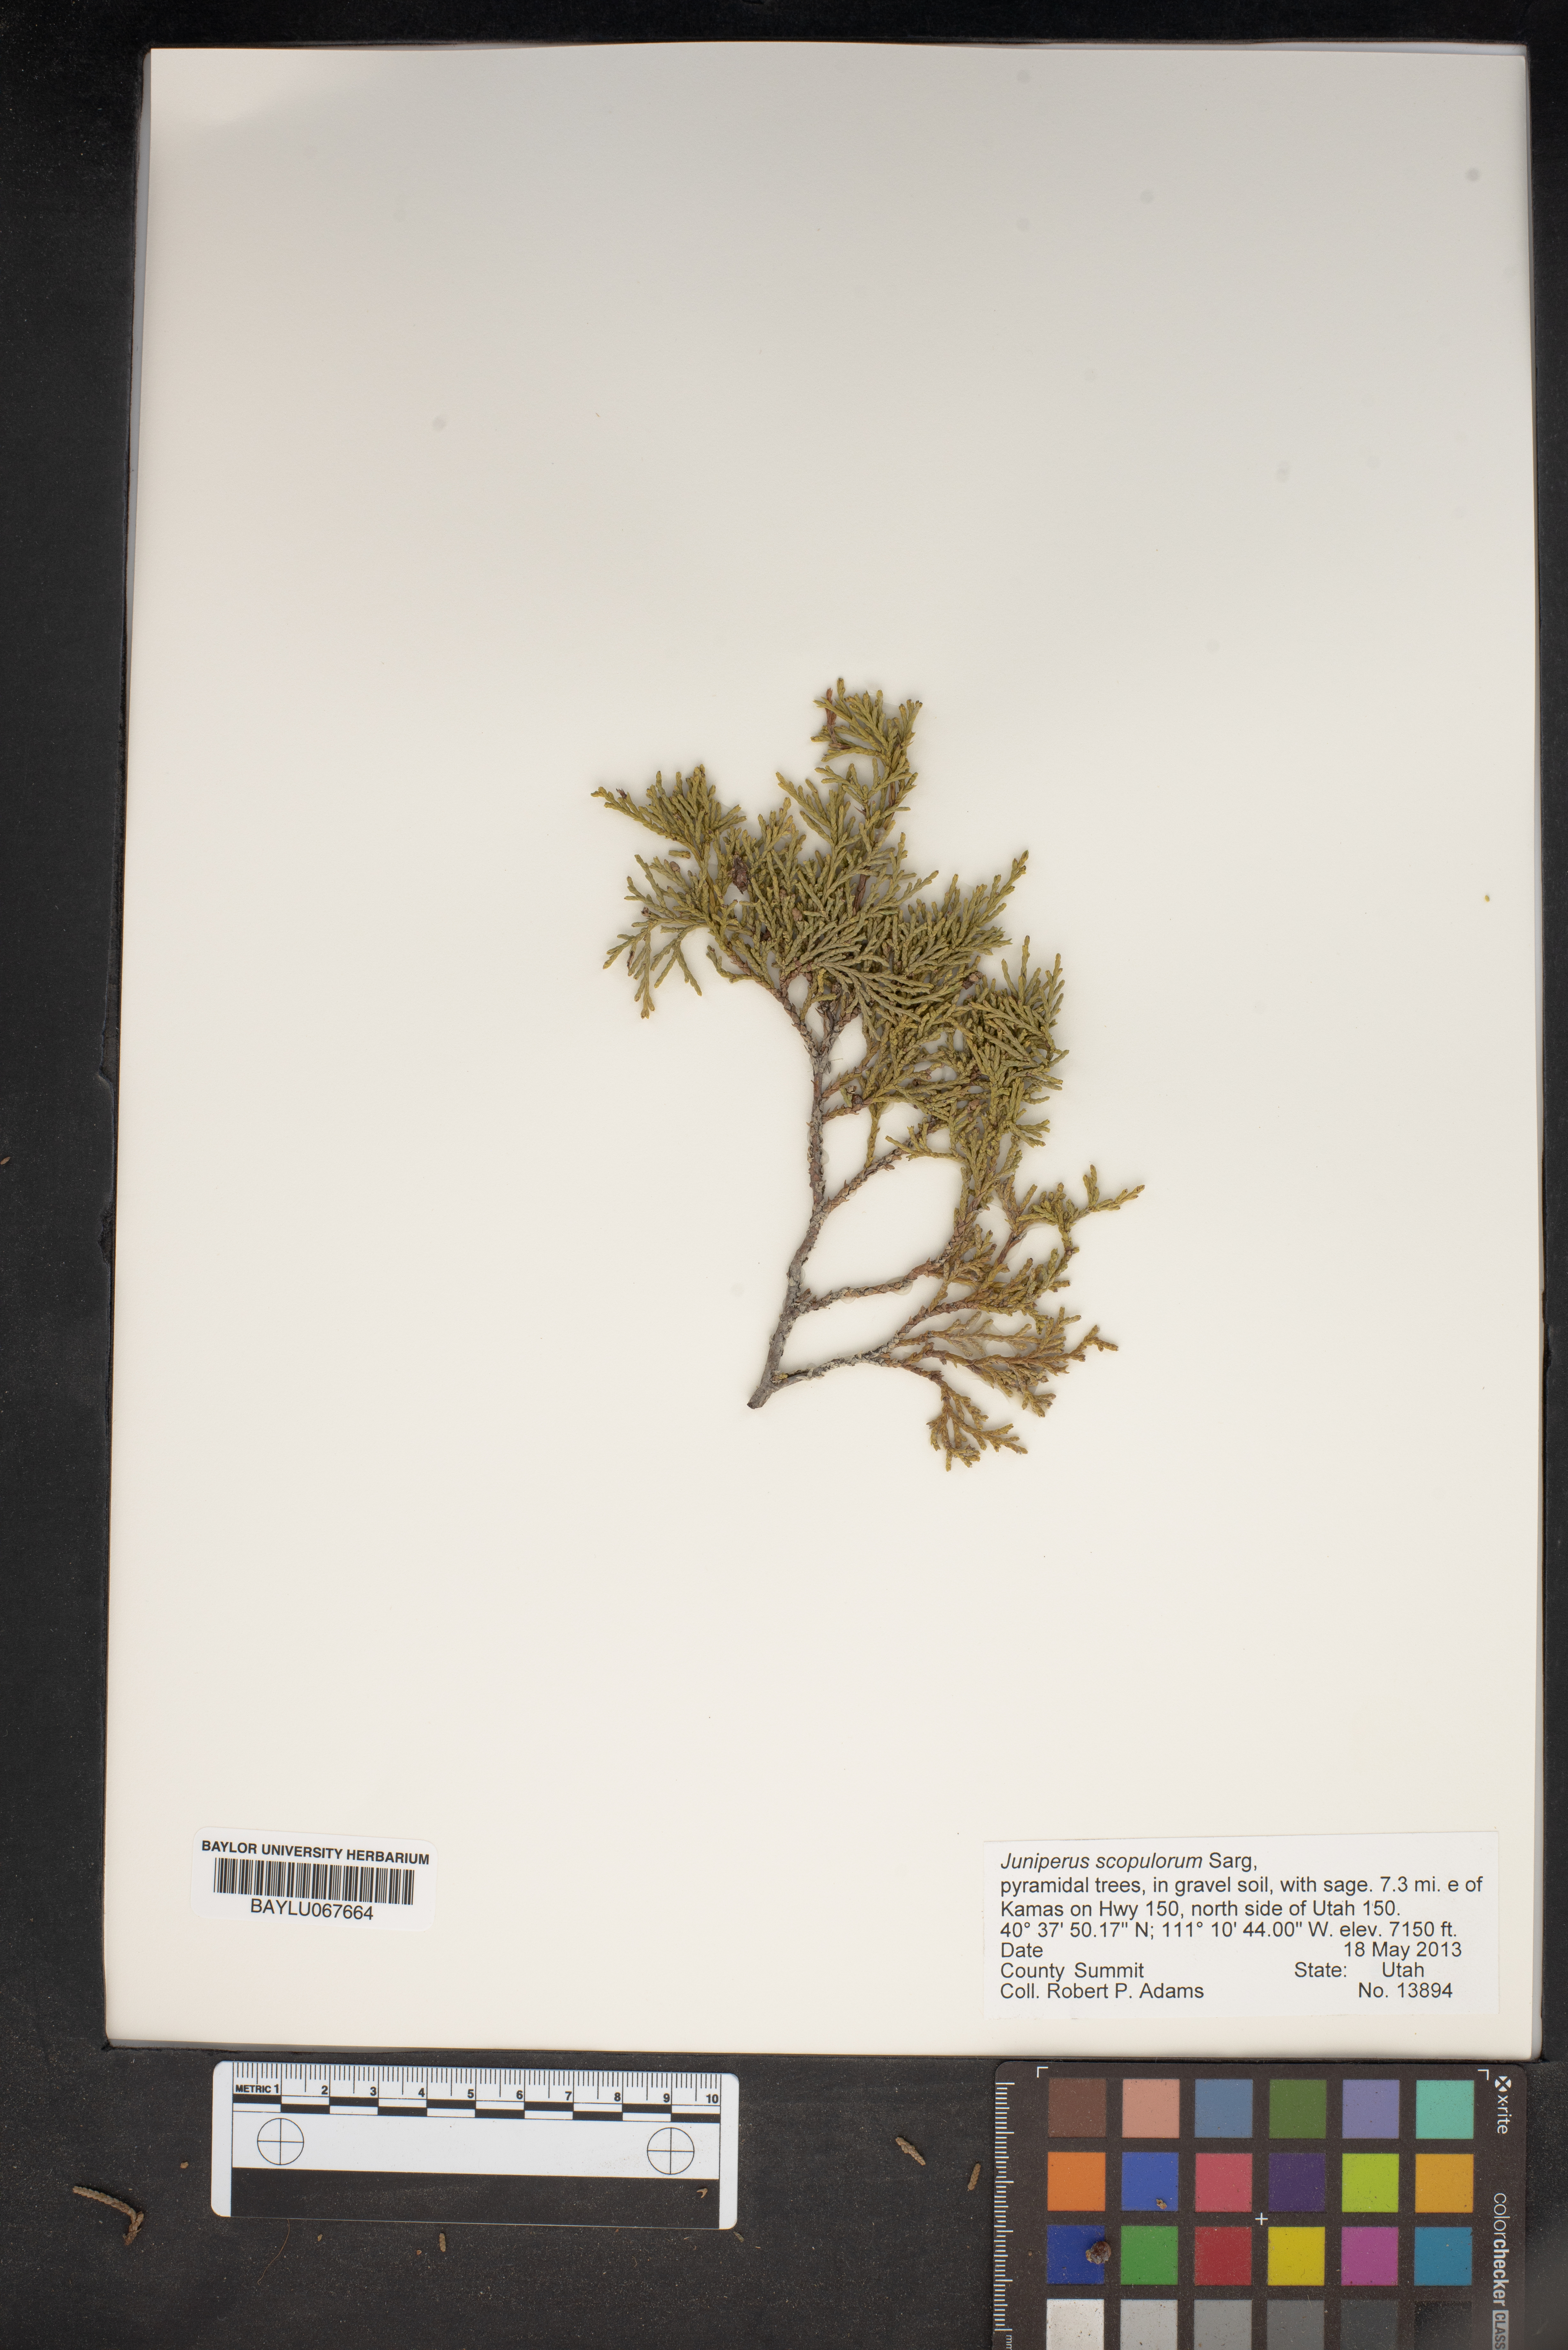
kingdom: Plantae
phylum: Tracheophyta
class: Pinopsida
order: Pinales
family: Cupressaceae
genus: Juniperus
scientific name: Juniperus scopulorum
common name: Rocky mountain juniper
